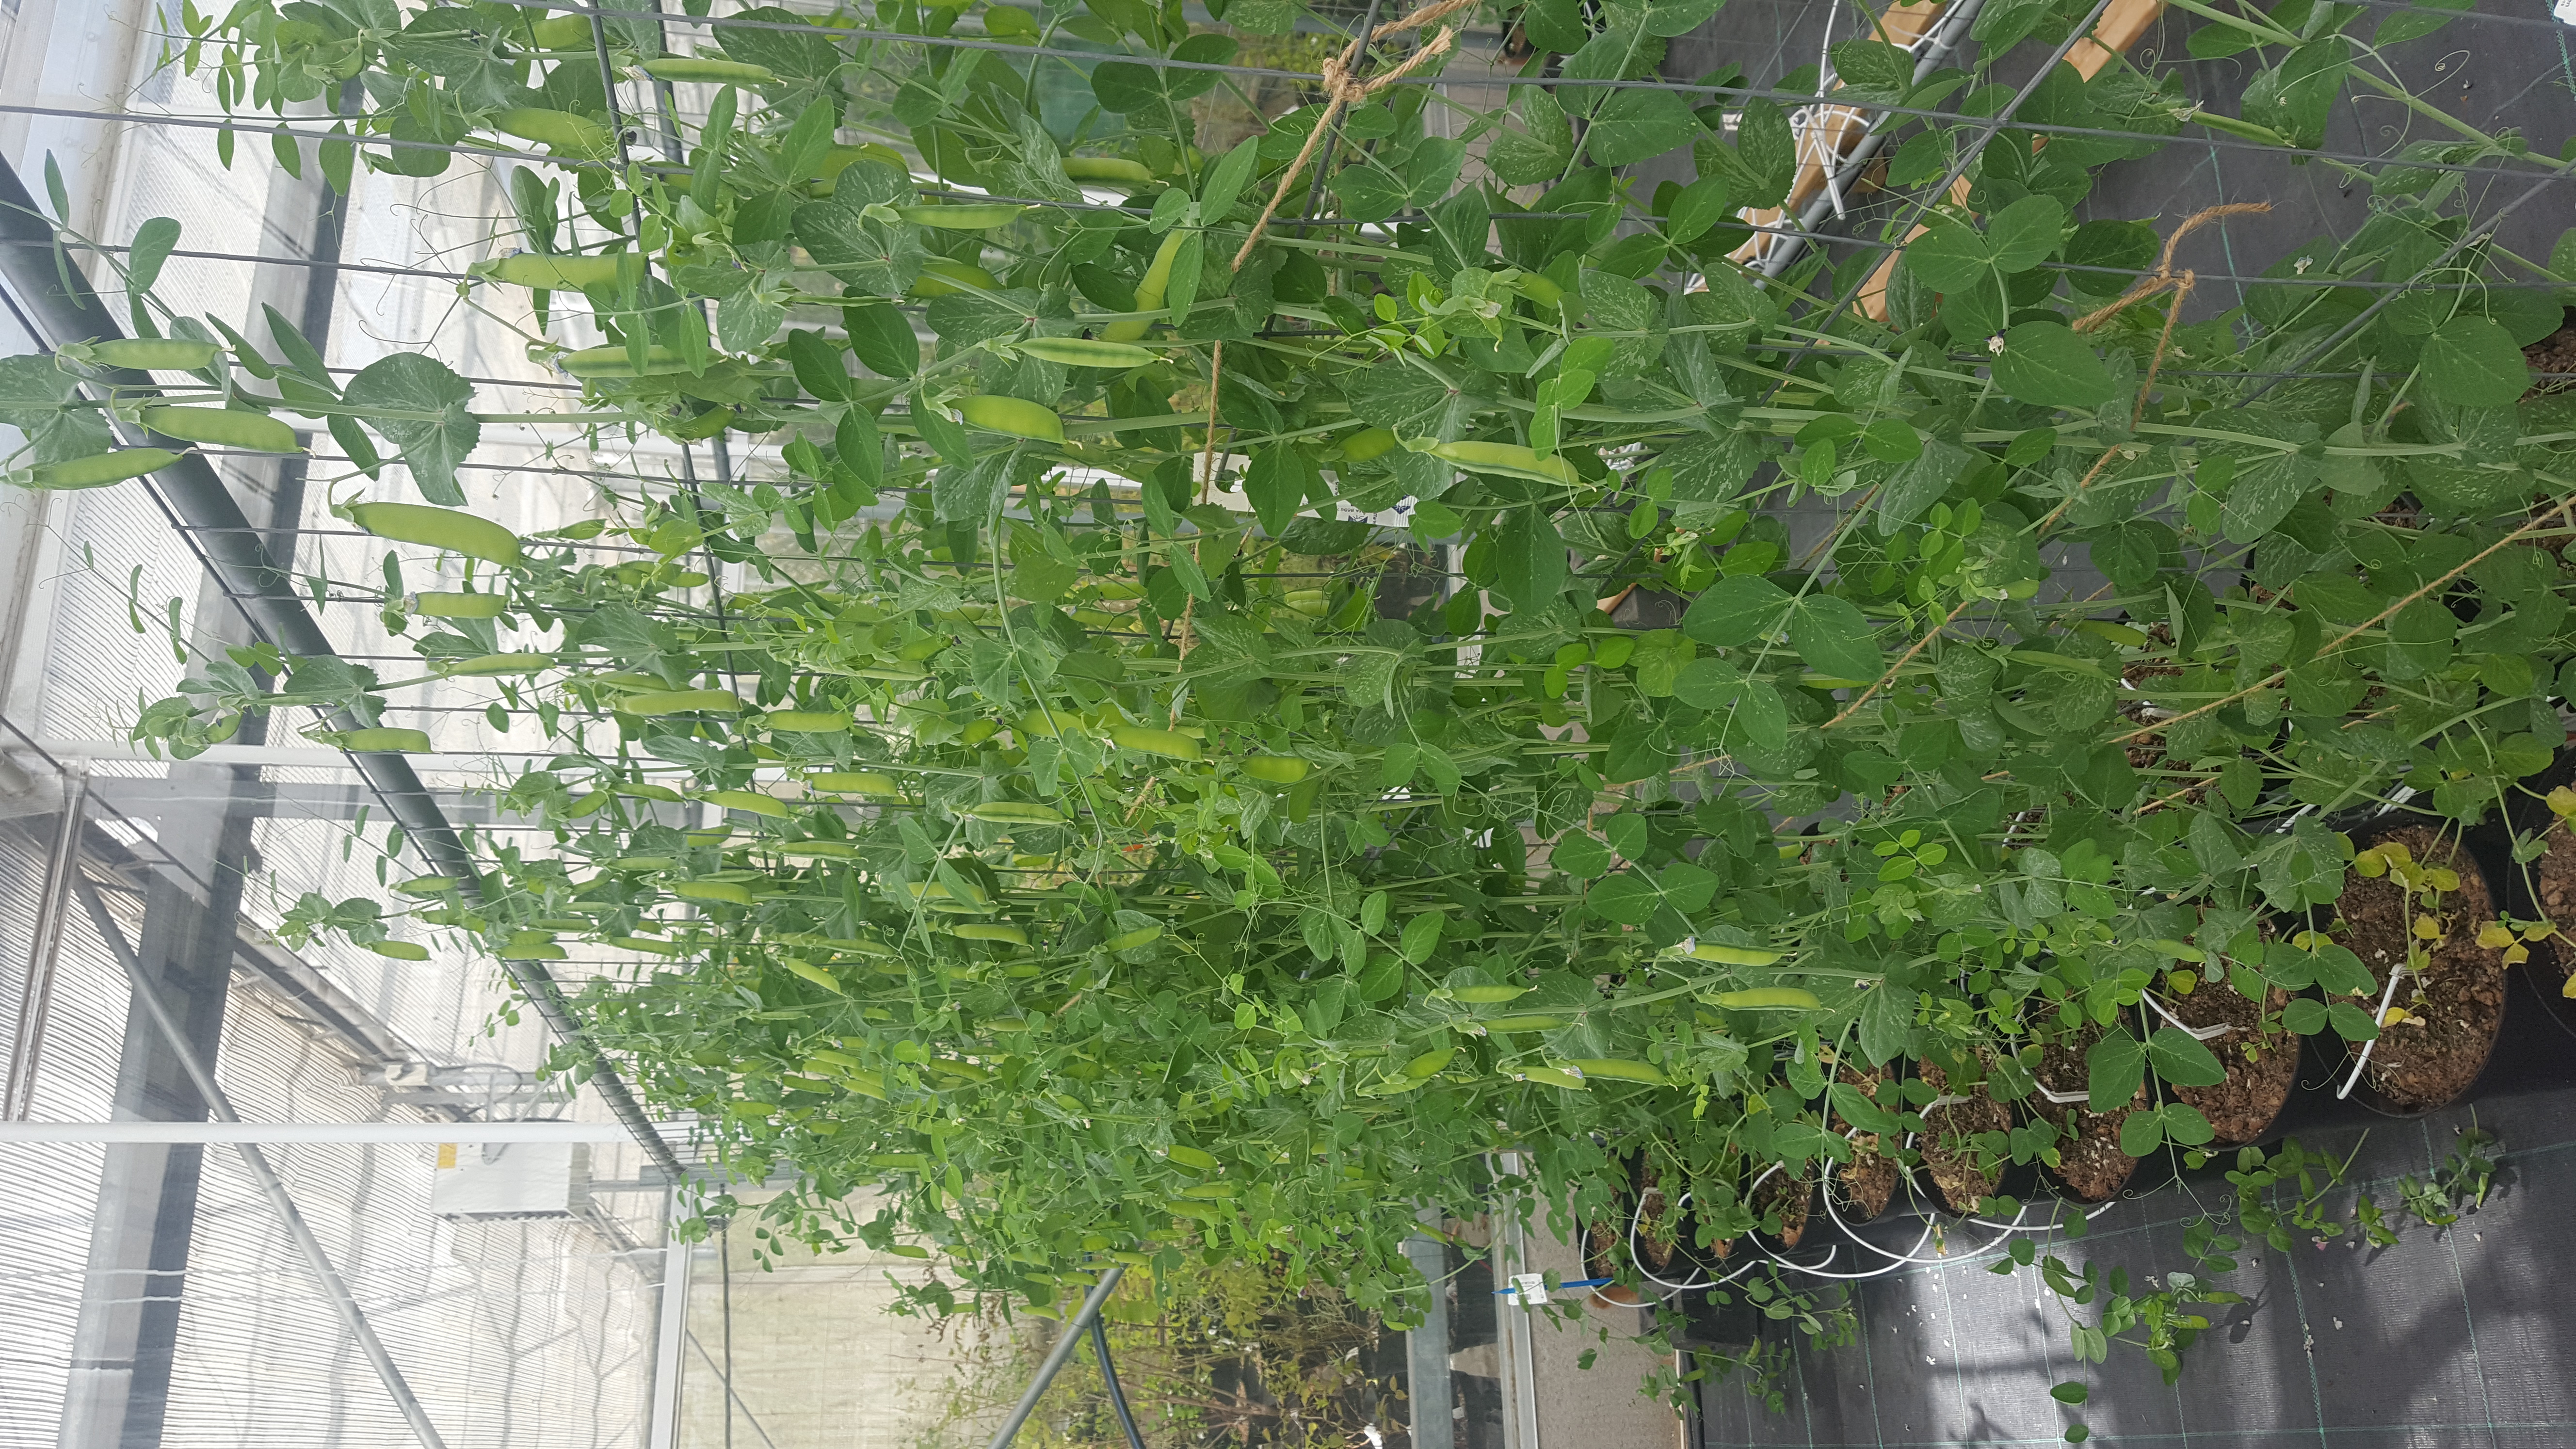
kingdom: Plantae
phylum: Tracheophyta
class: Magnoliopsida
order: Fabales
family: Fabaceae
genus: Lathyrus
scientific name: Lathyrus oleraceus
